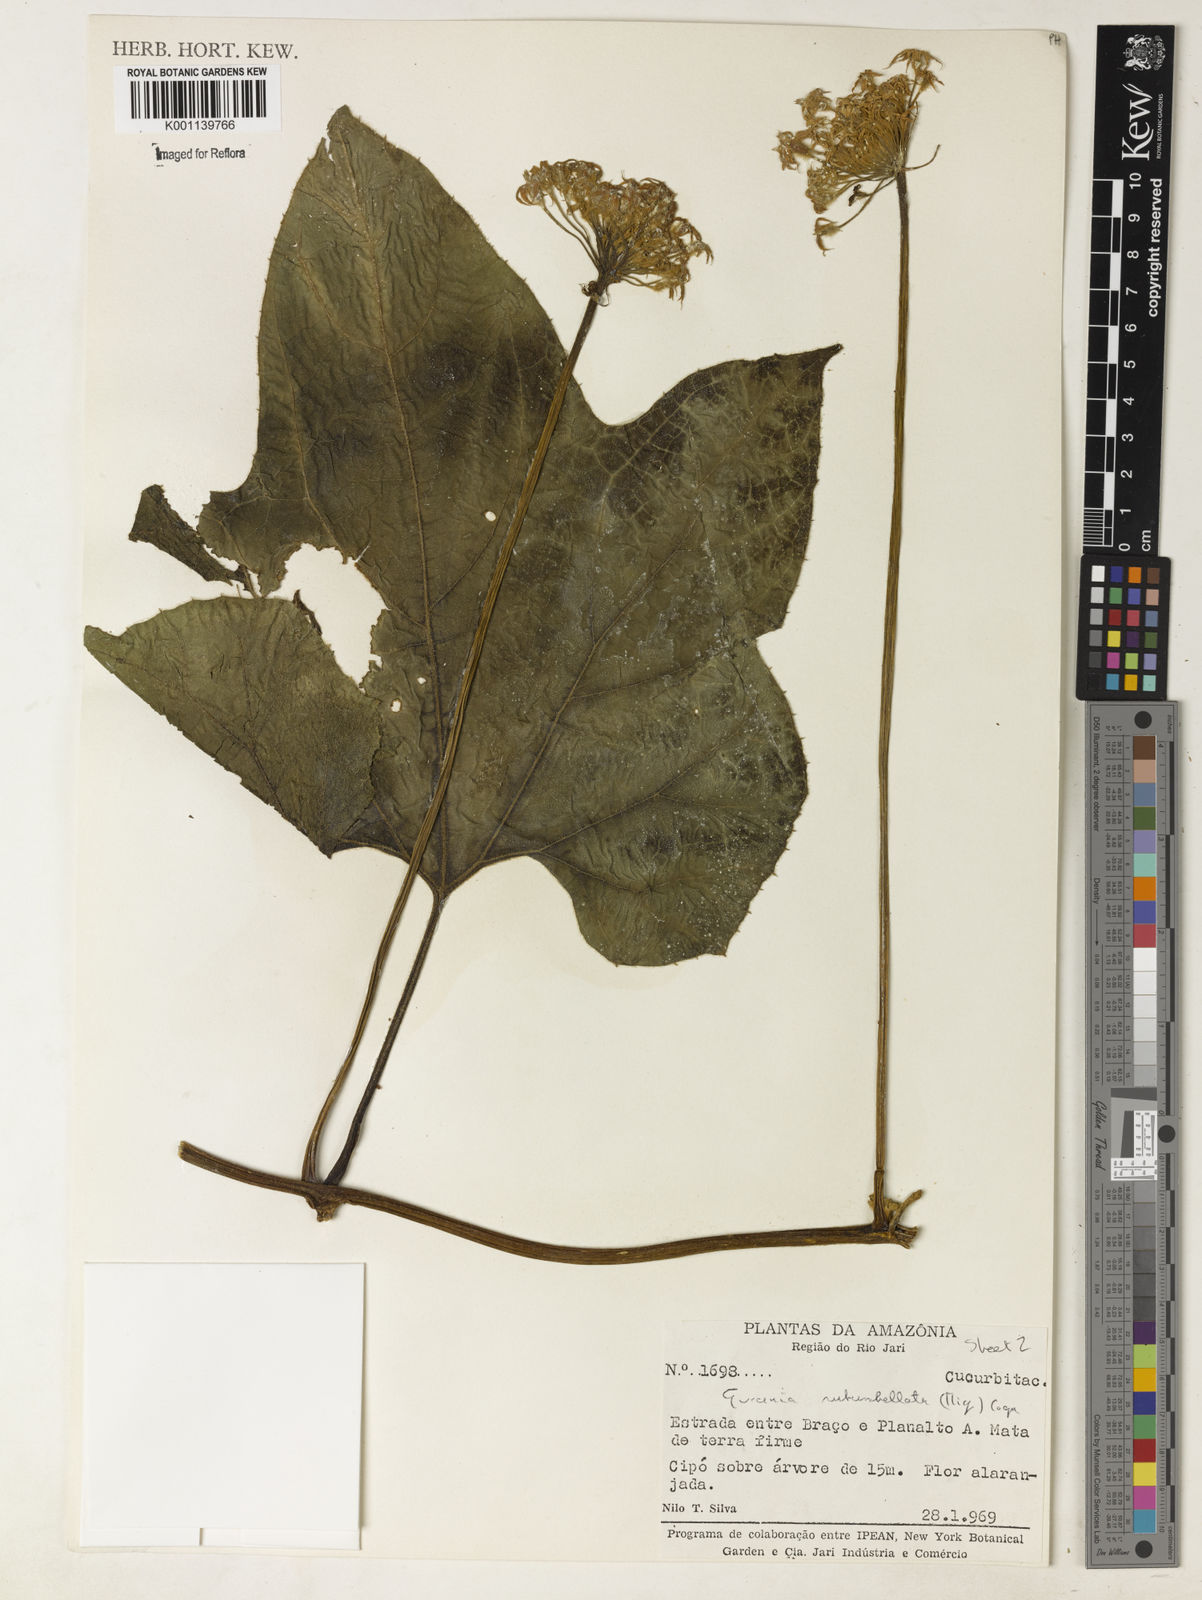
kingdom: Plantae
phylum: Tracheophyta
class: Magnoliopsida
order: Cucurbitales
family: Cucurbitaceae
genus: Gurania
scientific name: Gurania subumbellata
